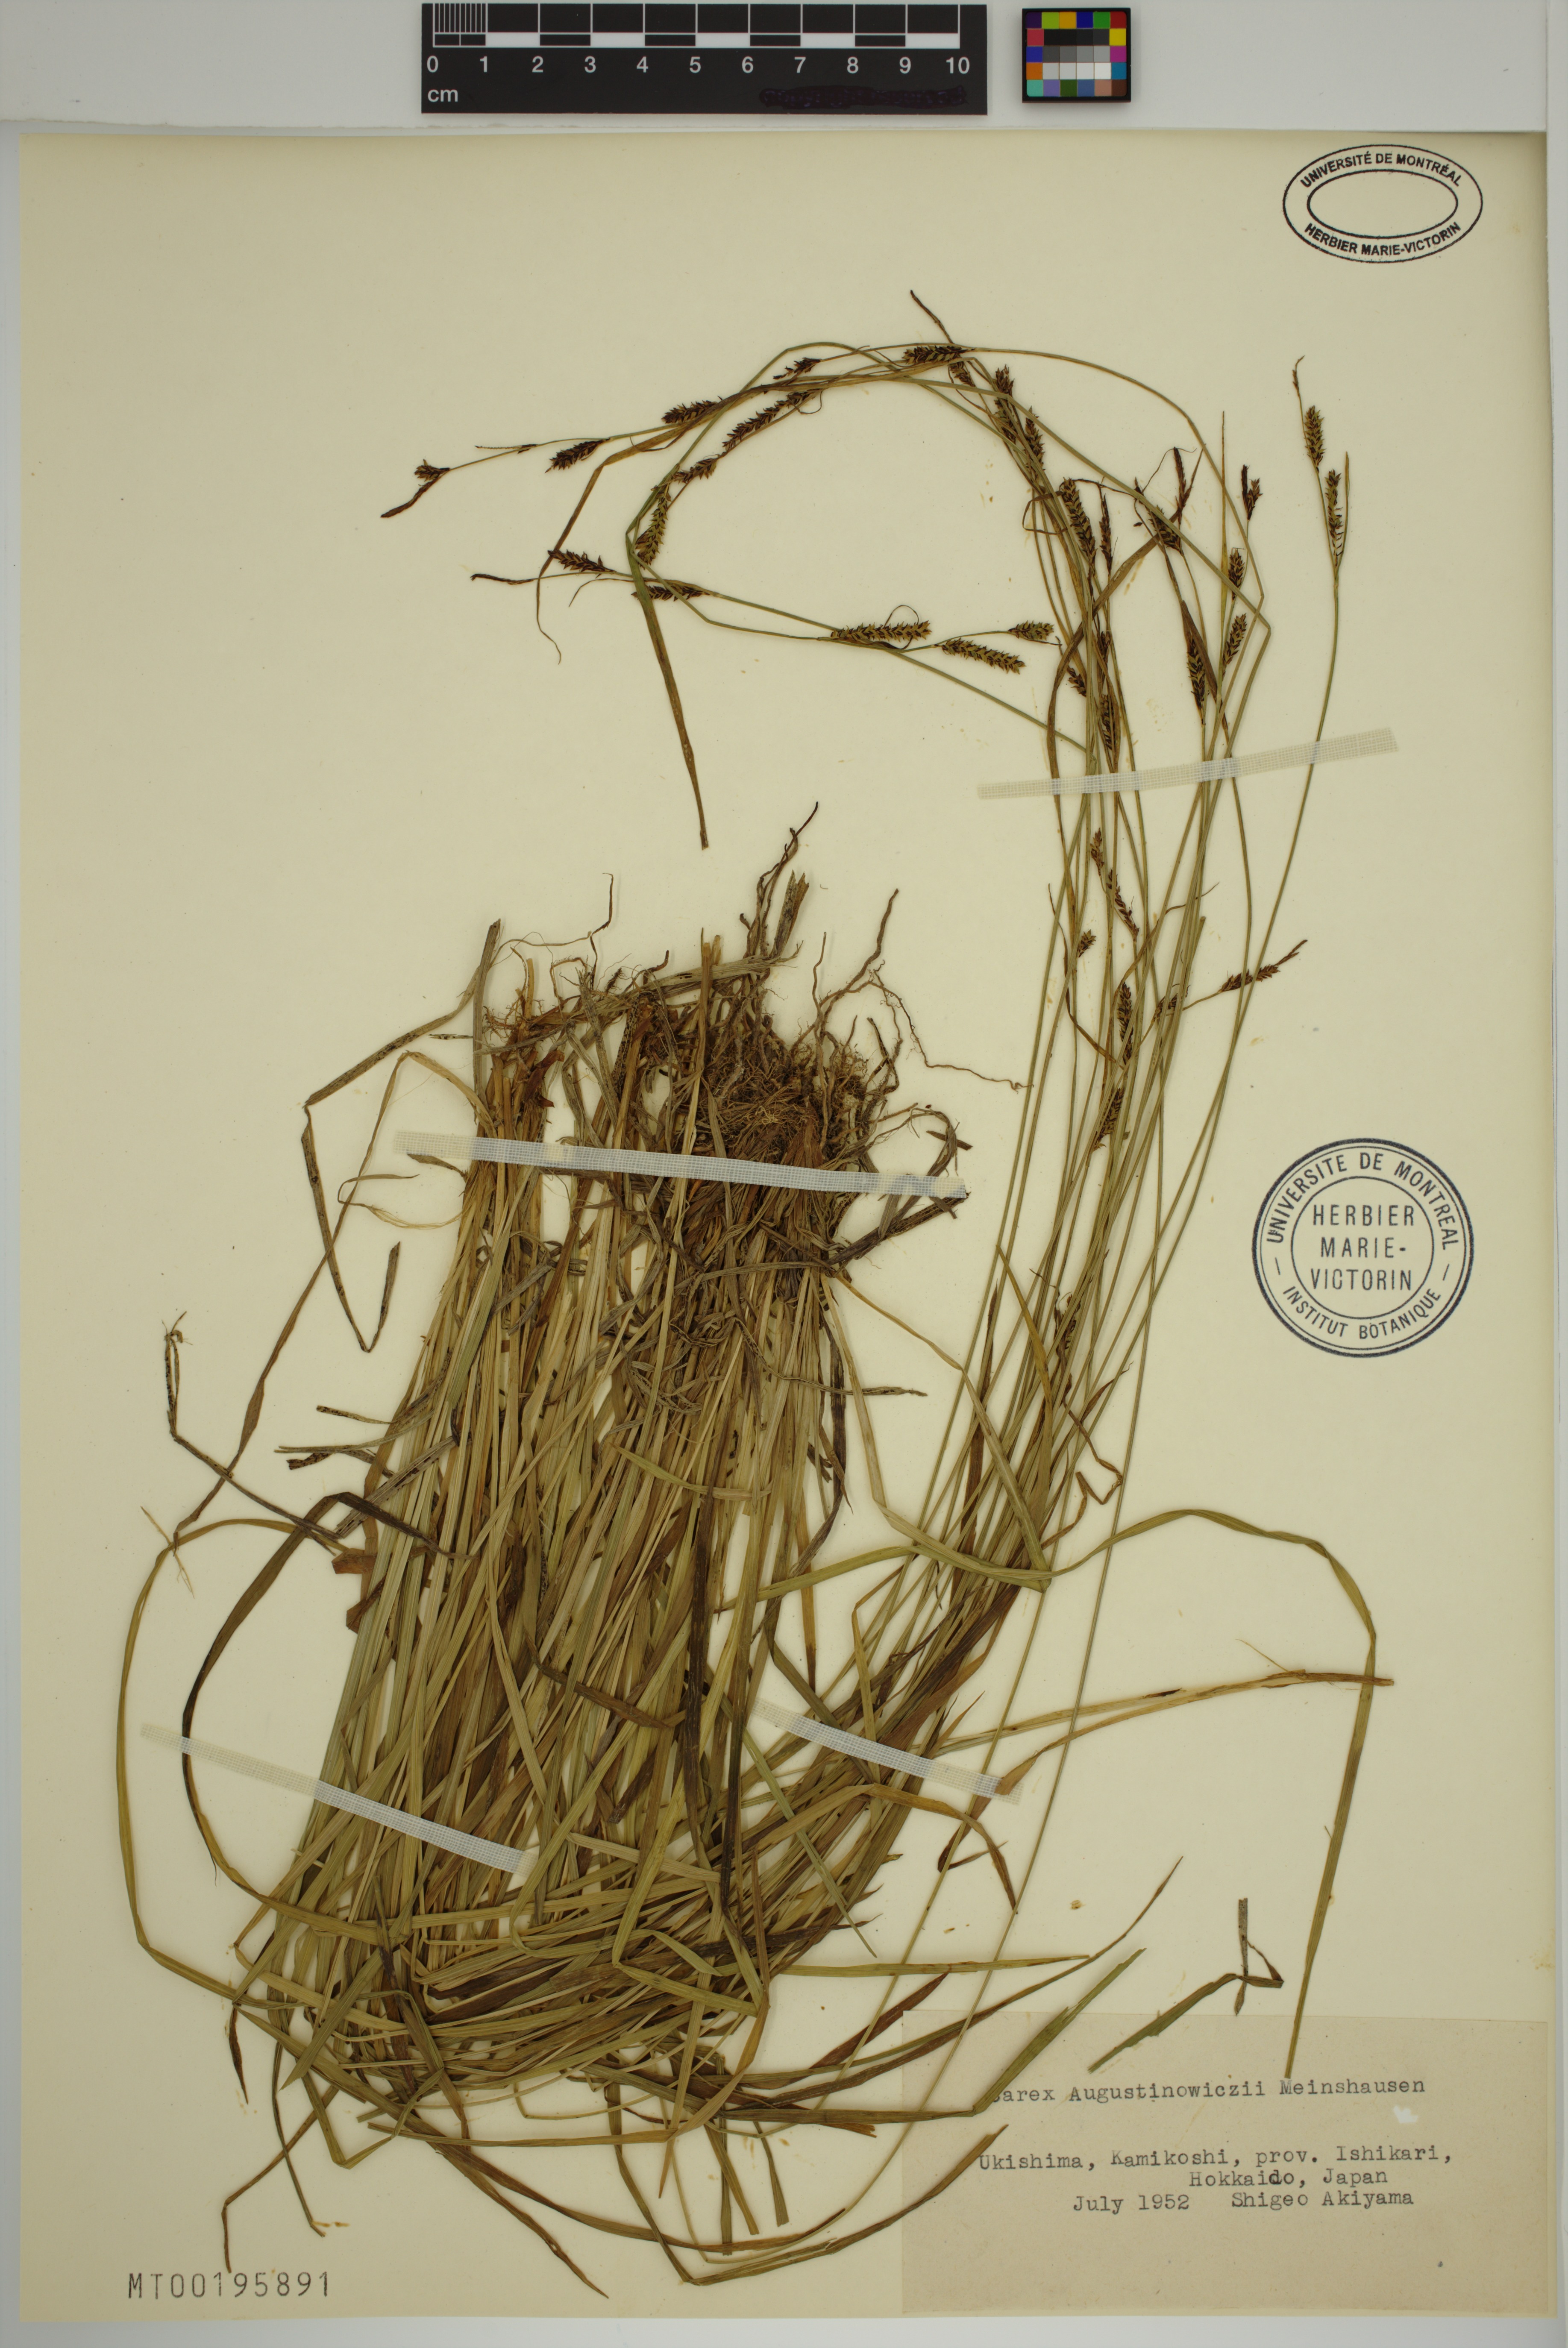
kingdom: Plantae
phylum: Tracheophyta
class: Liliopsida
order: Poales
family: Cyperaceae
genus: Carex
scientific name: Carex augustinowiczii
